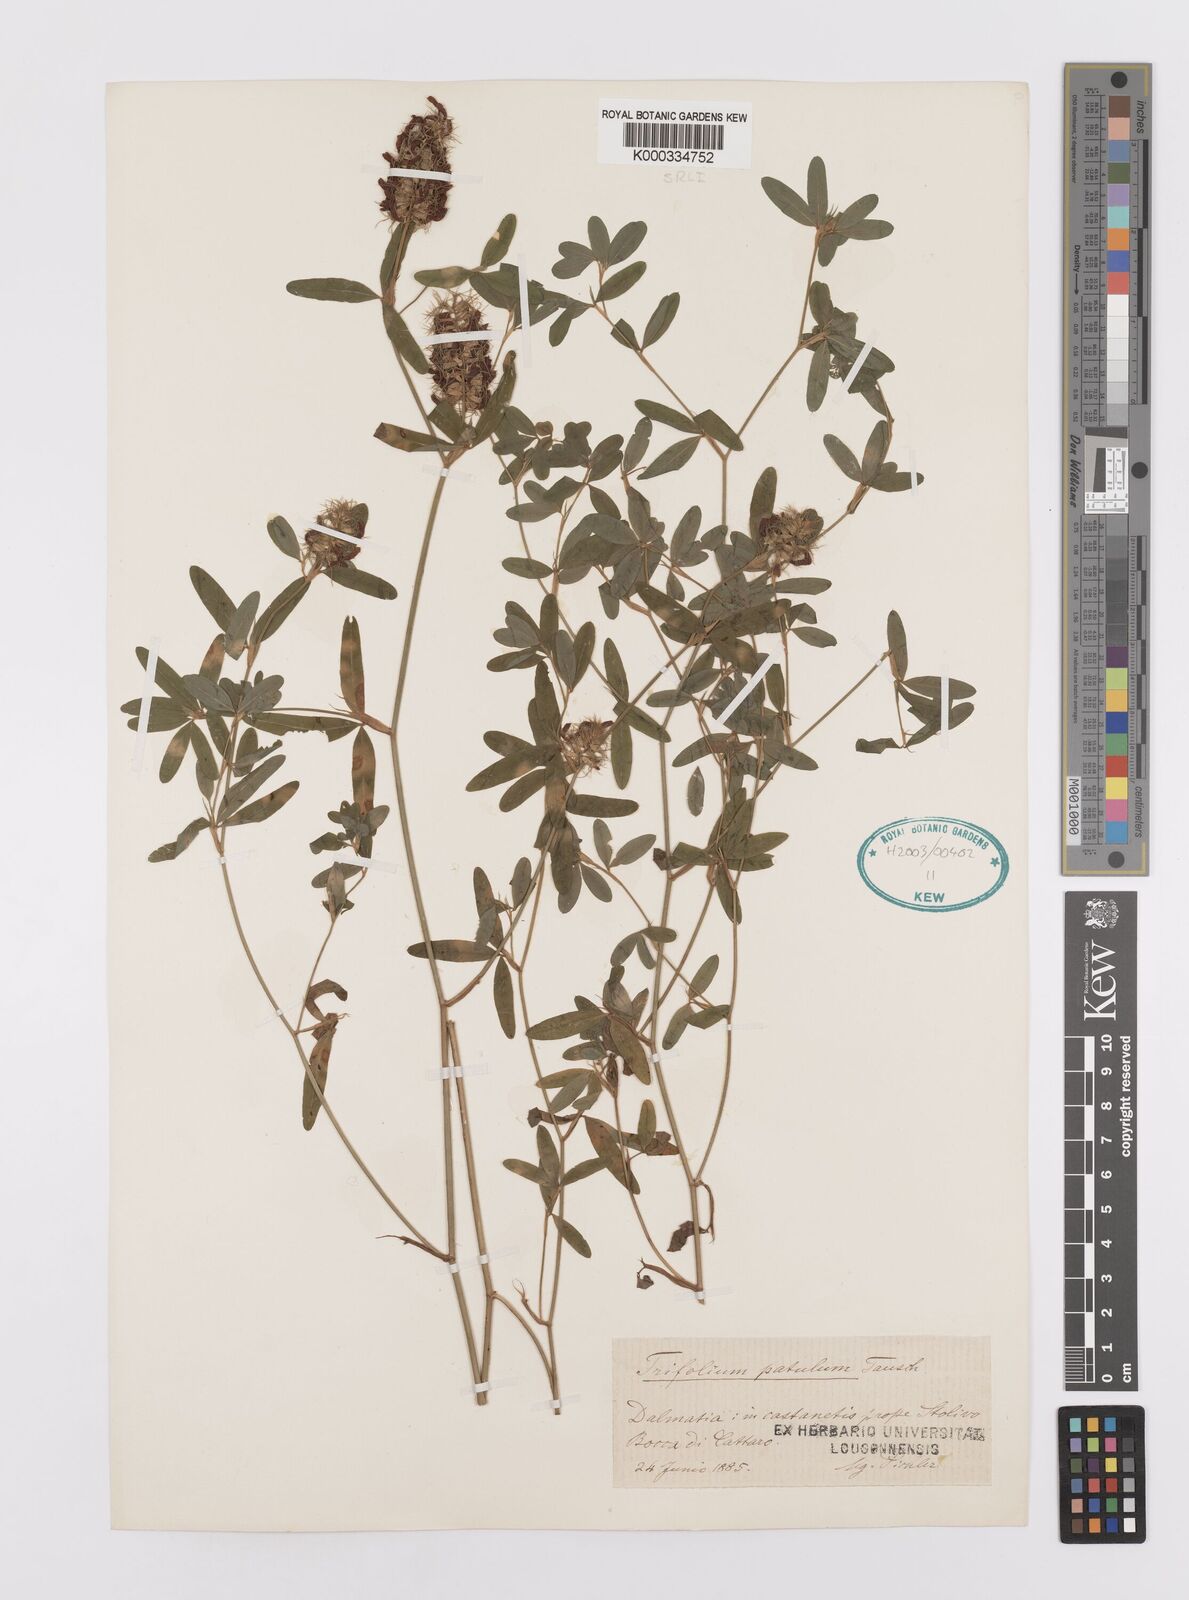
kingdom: Plantae
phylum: Tracheophyta
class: Magnoliopsida
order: Fabales
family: Fabaceae
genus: Trifolium
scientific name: Trifolium patulum
